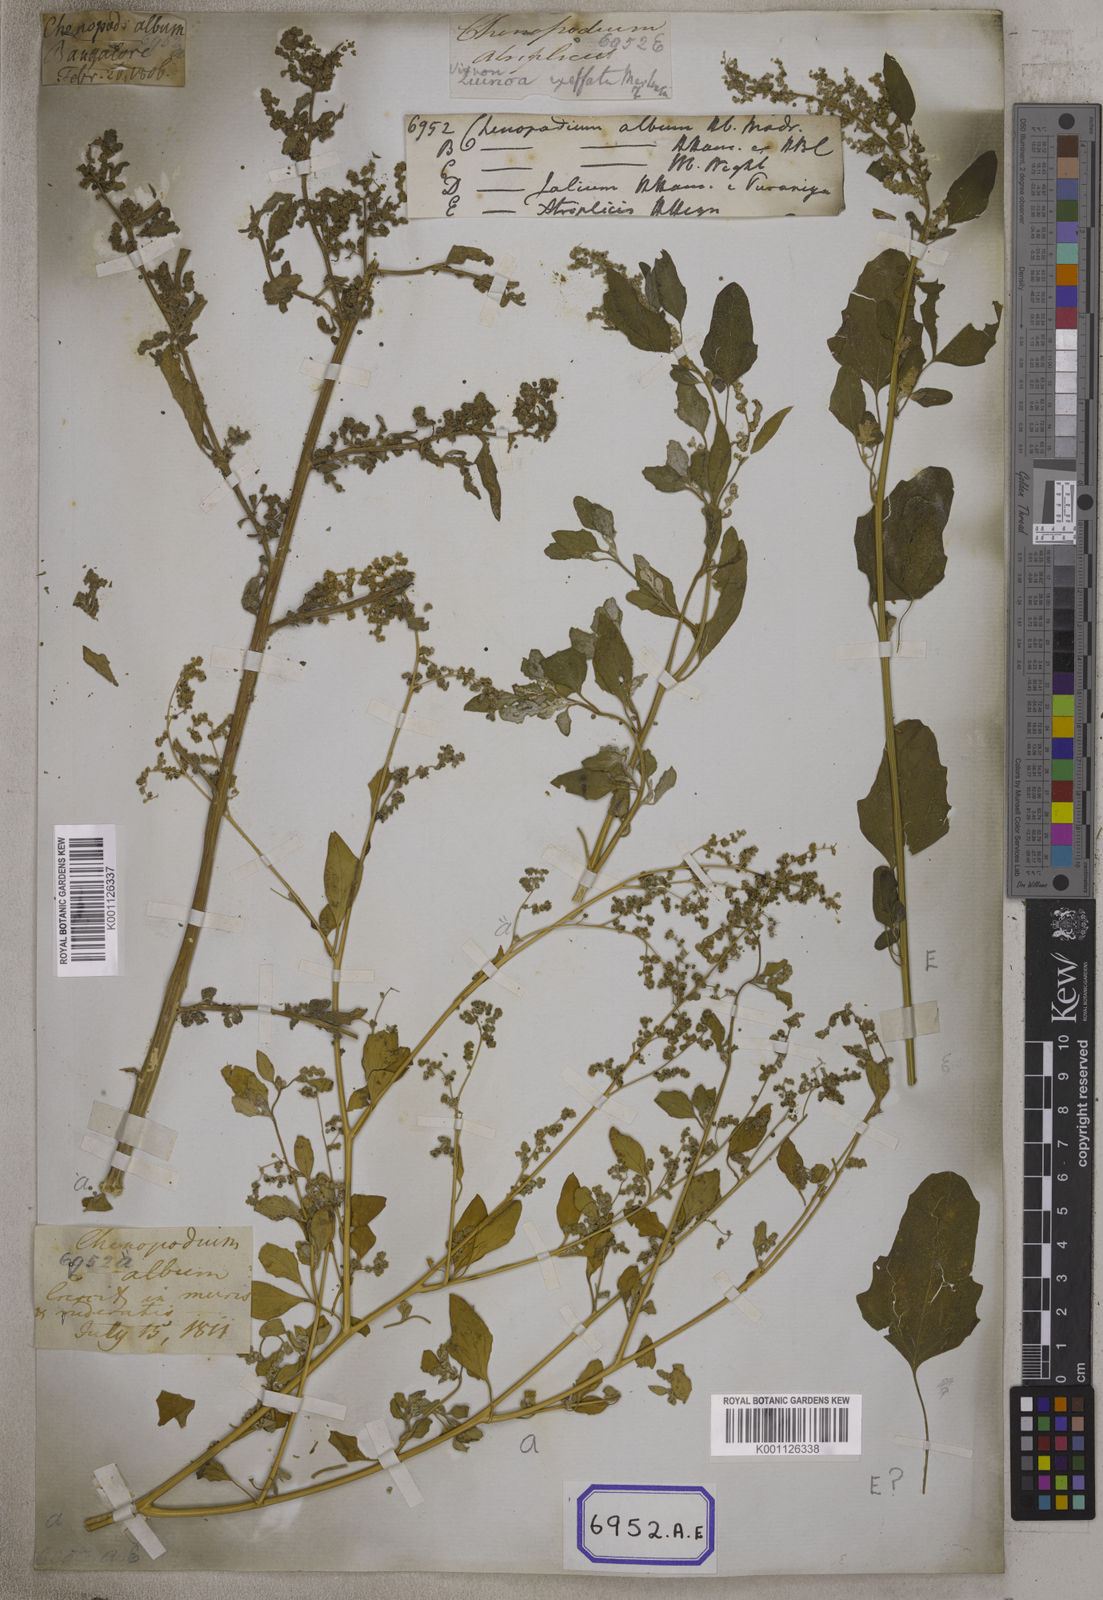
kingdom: Plantae
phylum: Tracheophyta
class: Magnoliopsida
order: Caryophyllales
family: Amaranthaceae
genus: Chenopodium
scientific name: Chenopodium album
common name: Fat-hen
